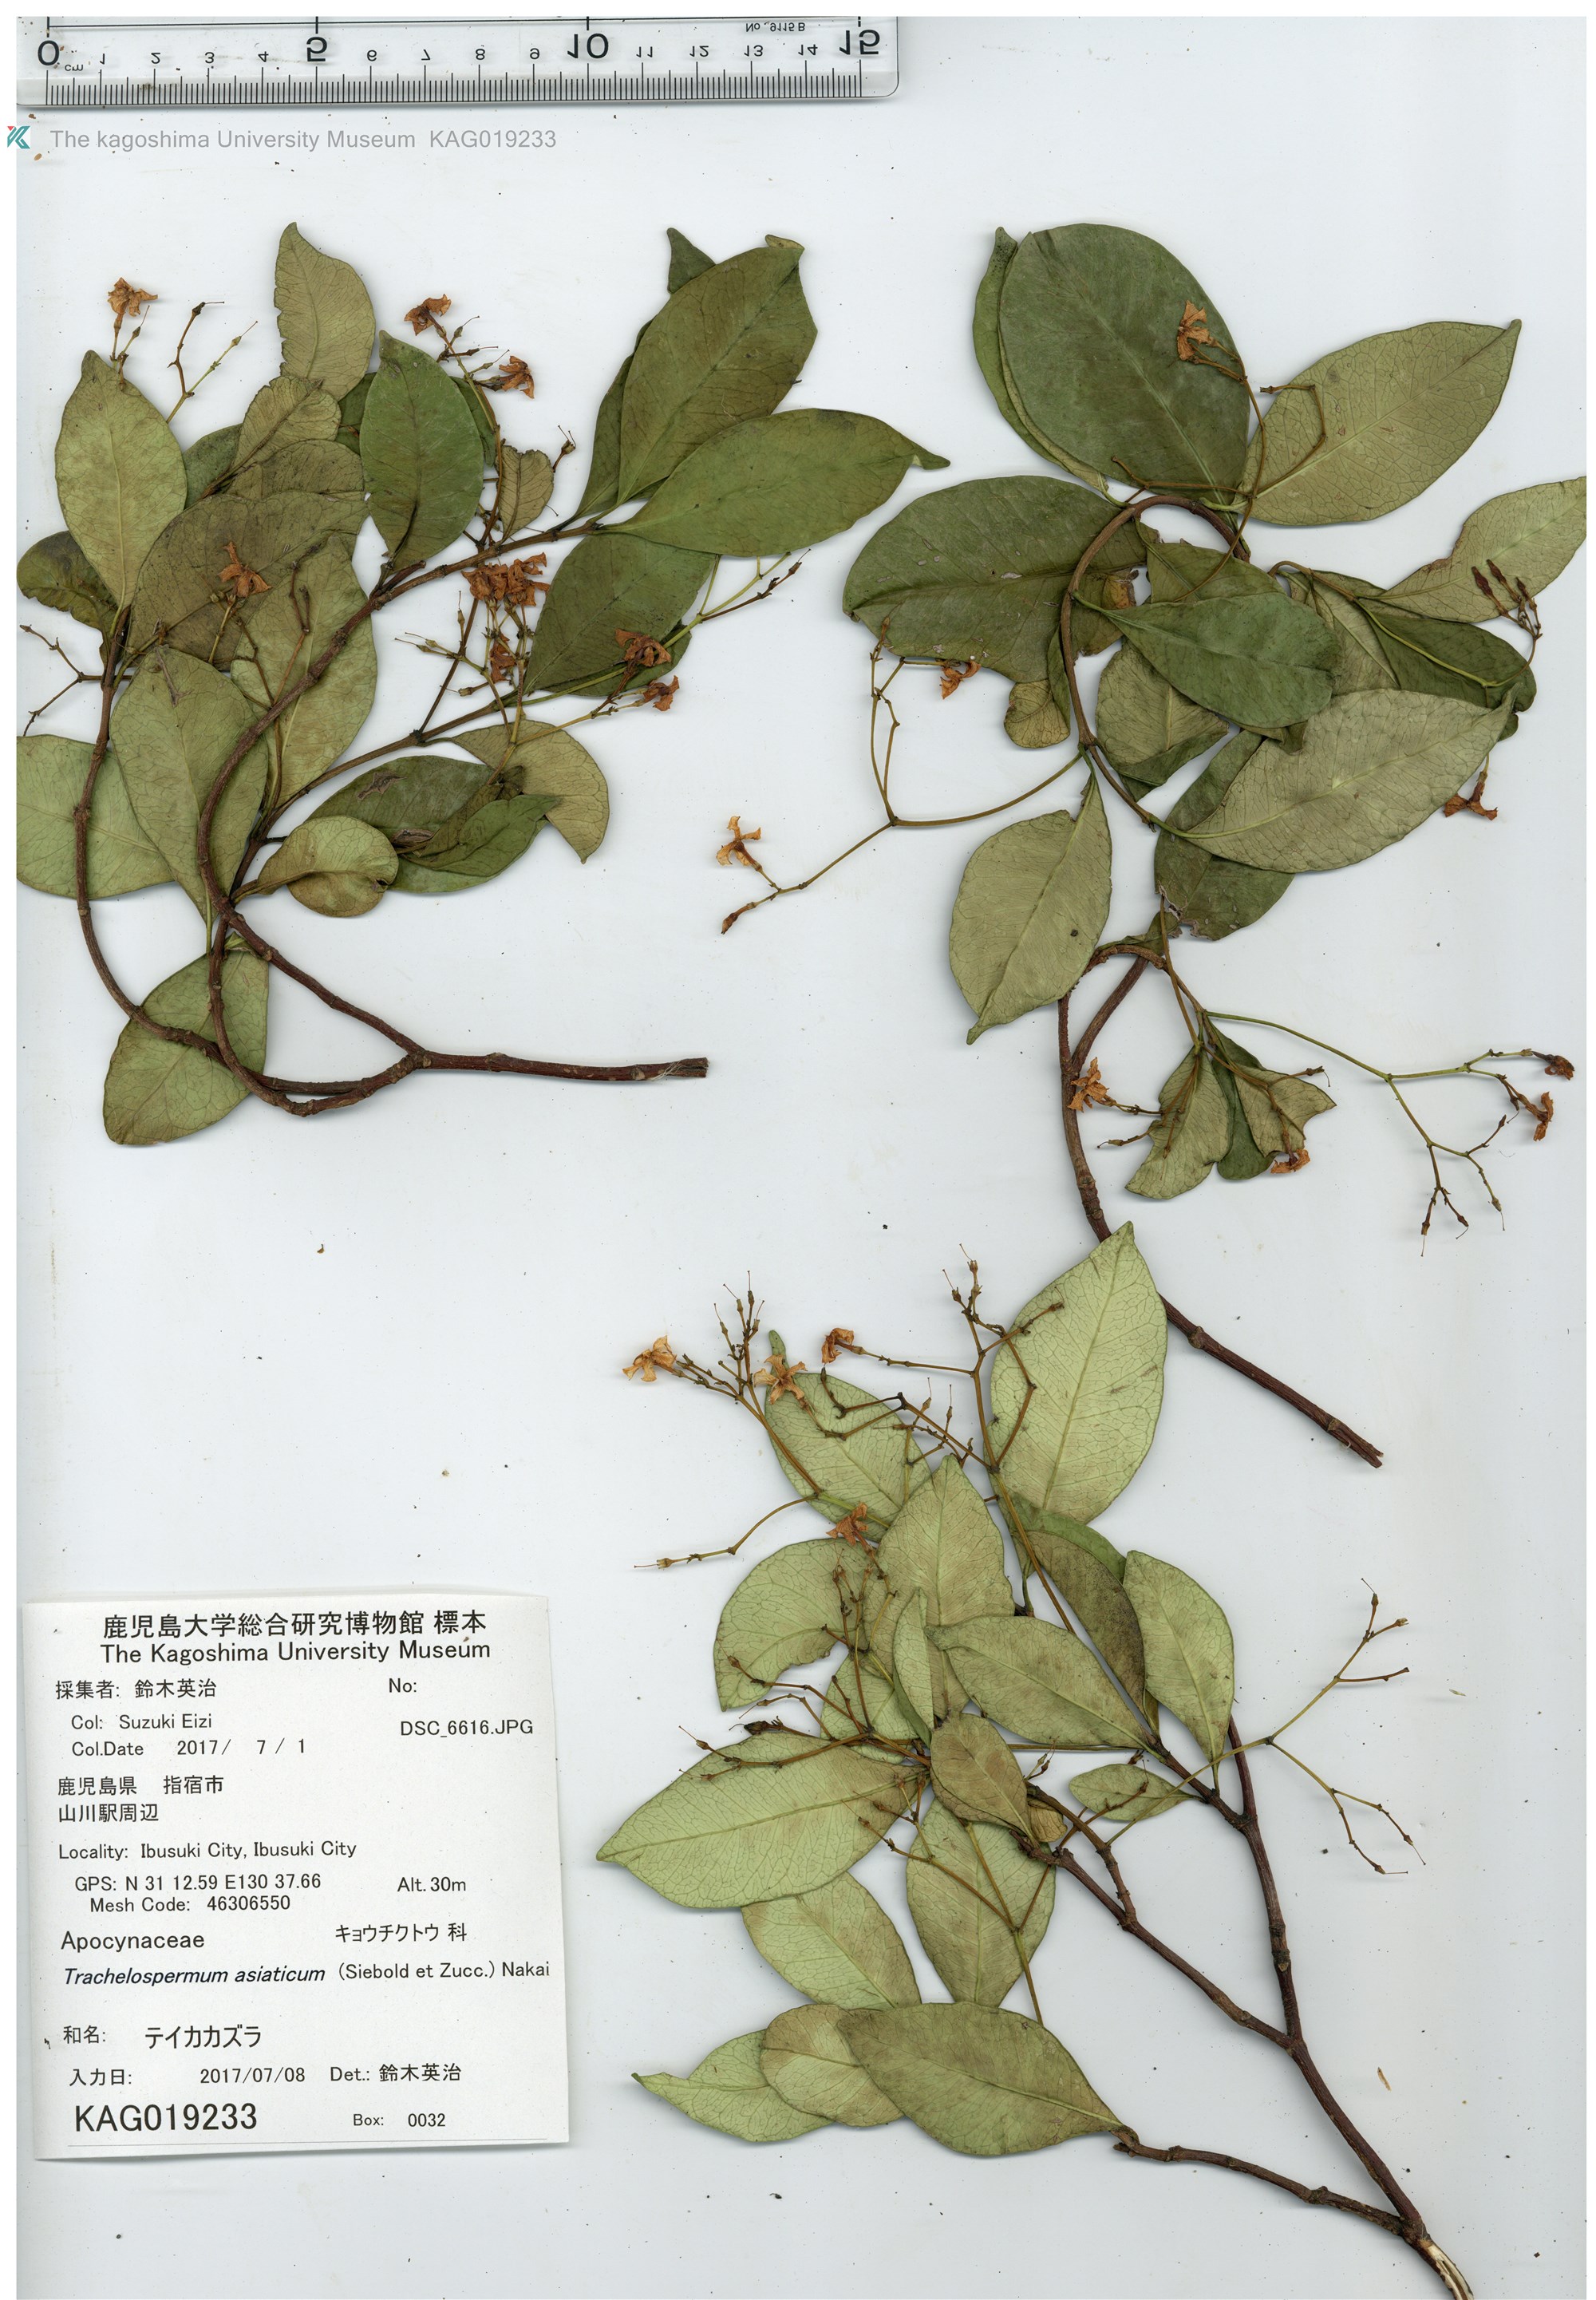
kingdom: Plantae
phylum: Tracheophyta
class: Magnoliopsida
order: Gentianales
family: Apocynaceae
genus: Trachelospermum
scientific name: Trachelospermum asiaticum
